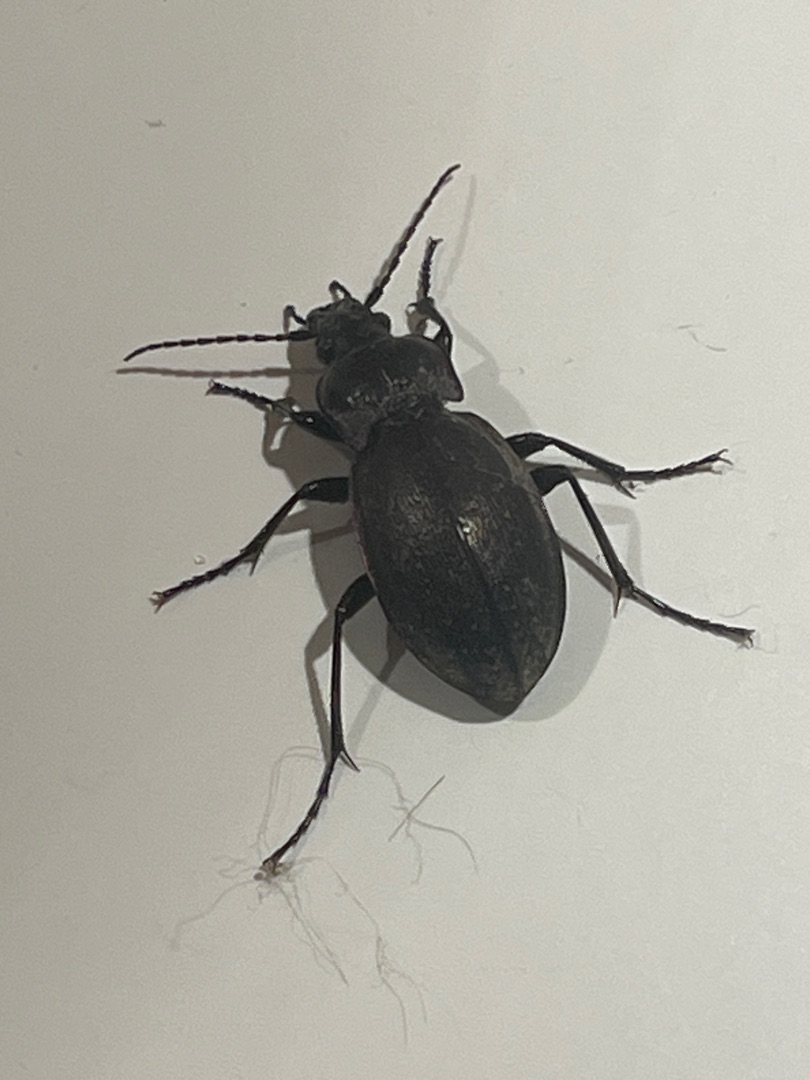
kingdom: Animalia
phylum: Arthropoda
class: Insecta
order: Coleoptera
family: Carabidae
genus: Carabus
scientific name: Carabus nemoralis
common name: Kratløber
